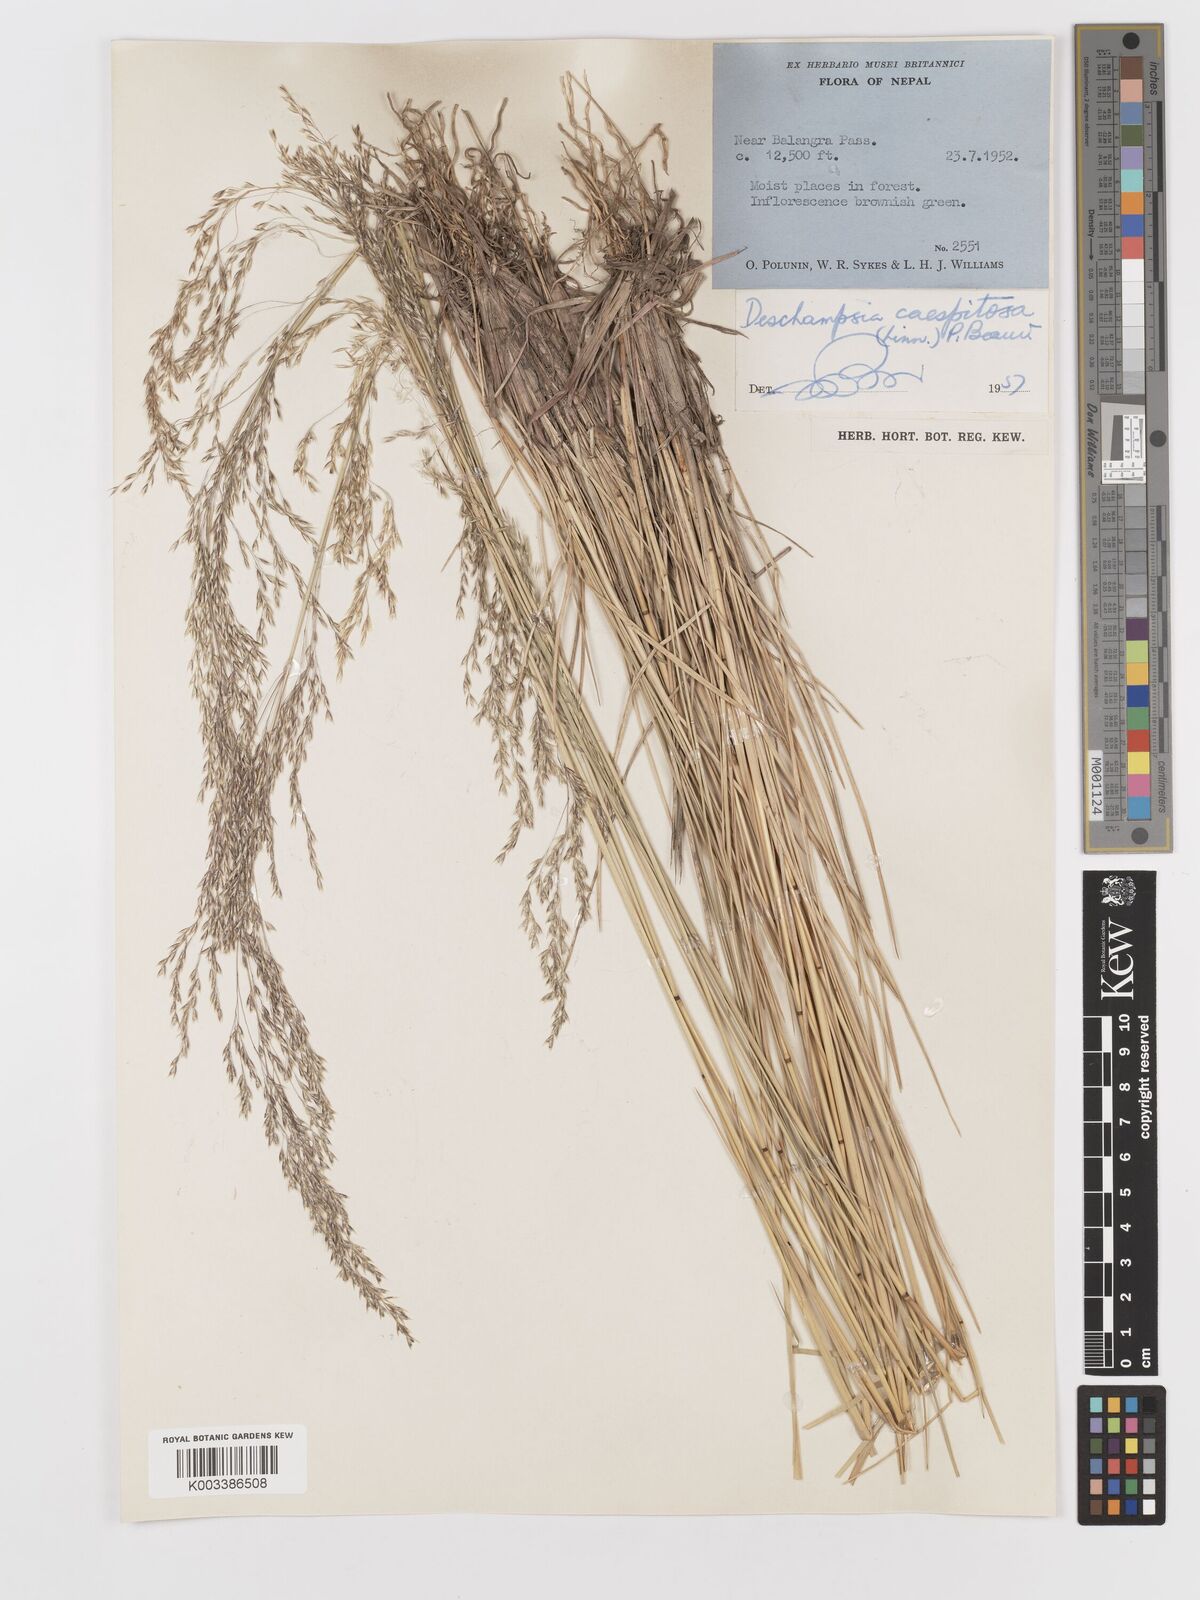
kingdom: Plantae
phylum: Tracheophyta
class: Liliopsida
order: Poales
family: Poaceae
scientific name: Poaceae
